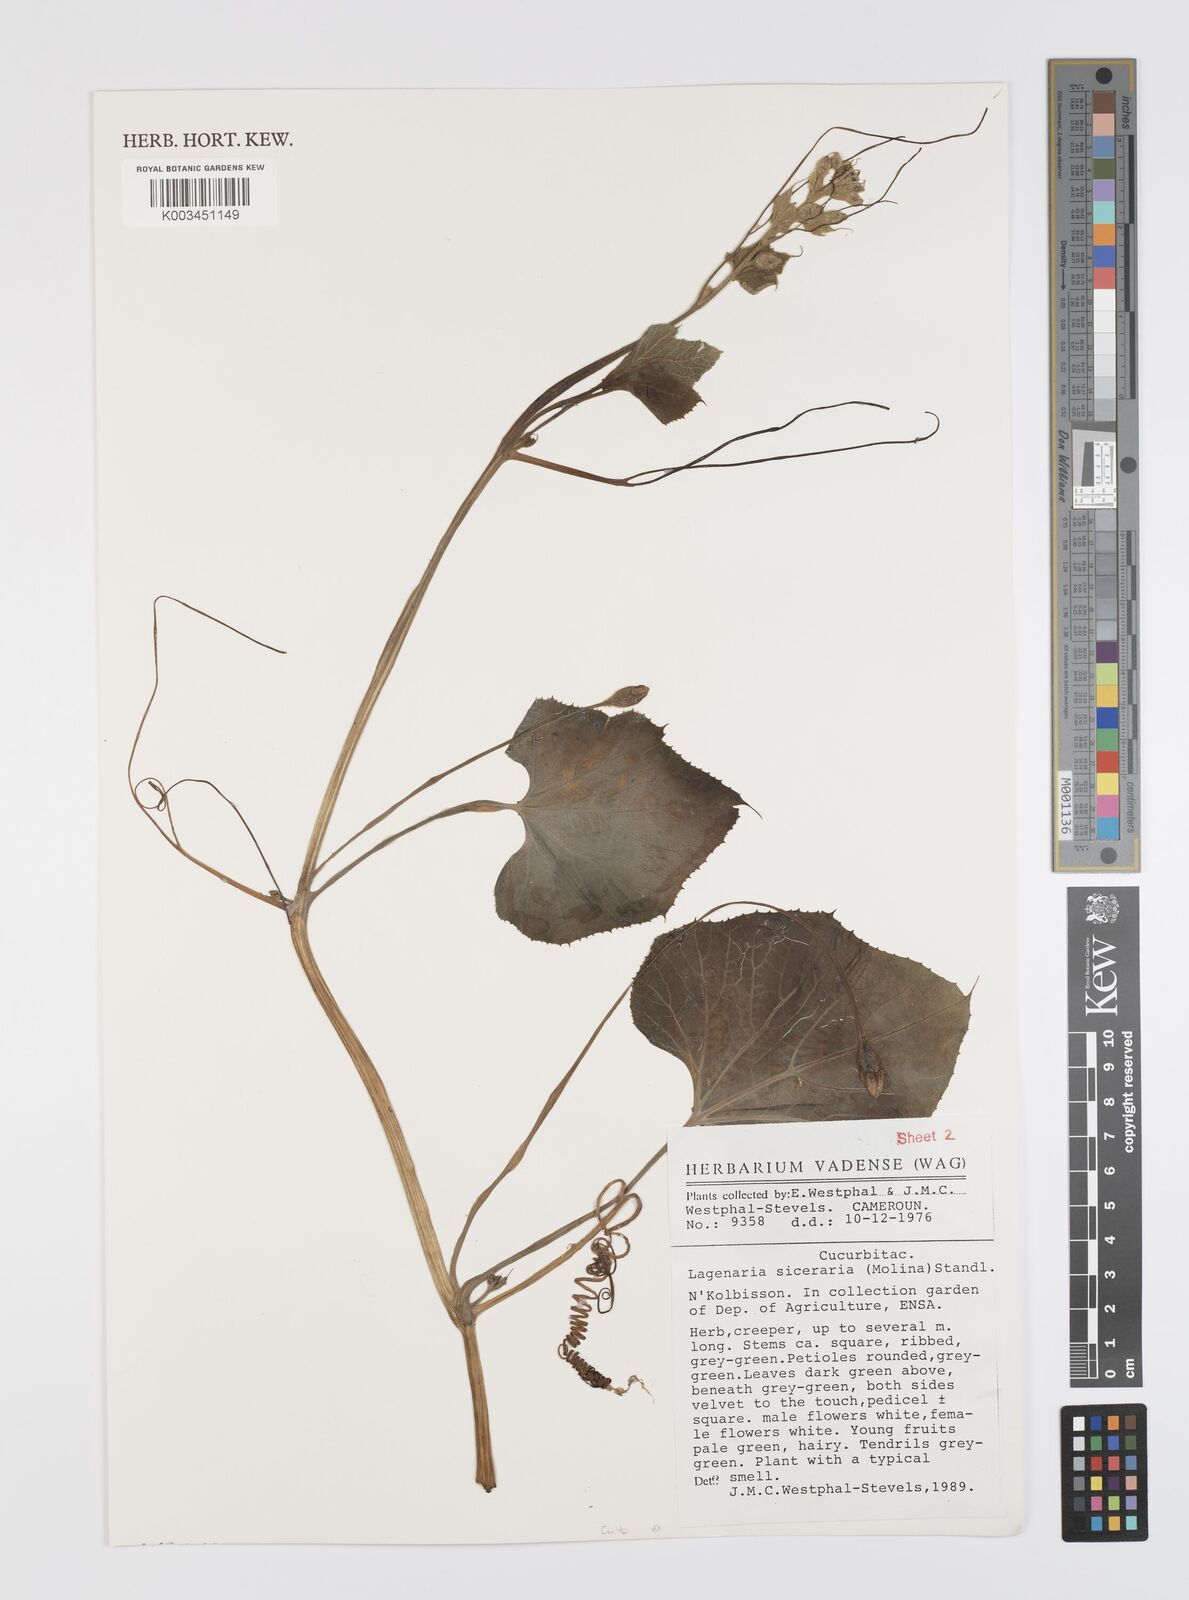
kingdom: Plantae
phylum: Tracheophyta
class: Magnoliopsida
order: Cucurbitales
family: Cucurbitaceae
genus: Lagenaria
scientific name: Lagenaria siceraria
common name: Bottle gourd
